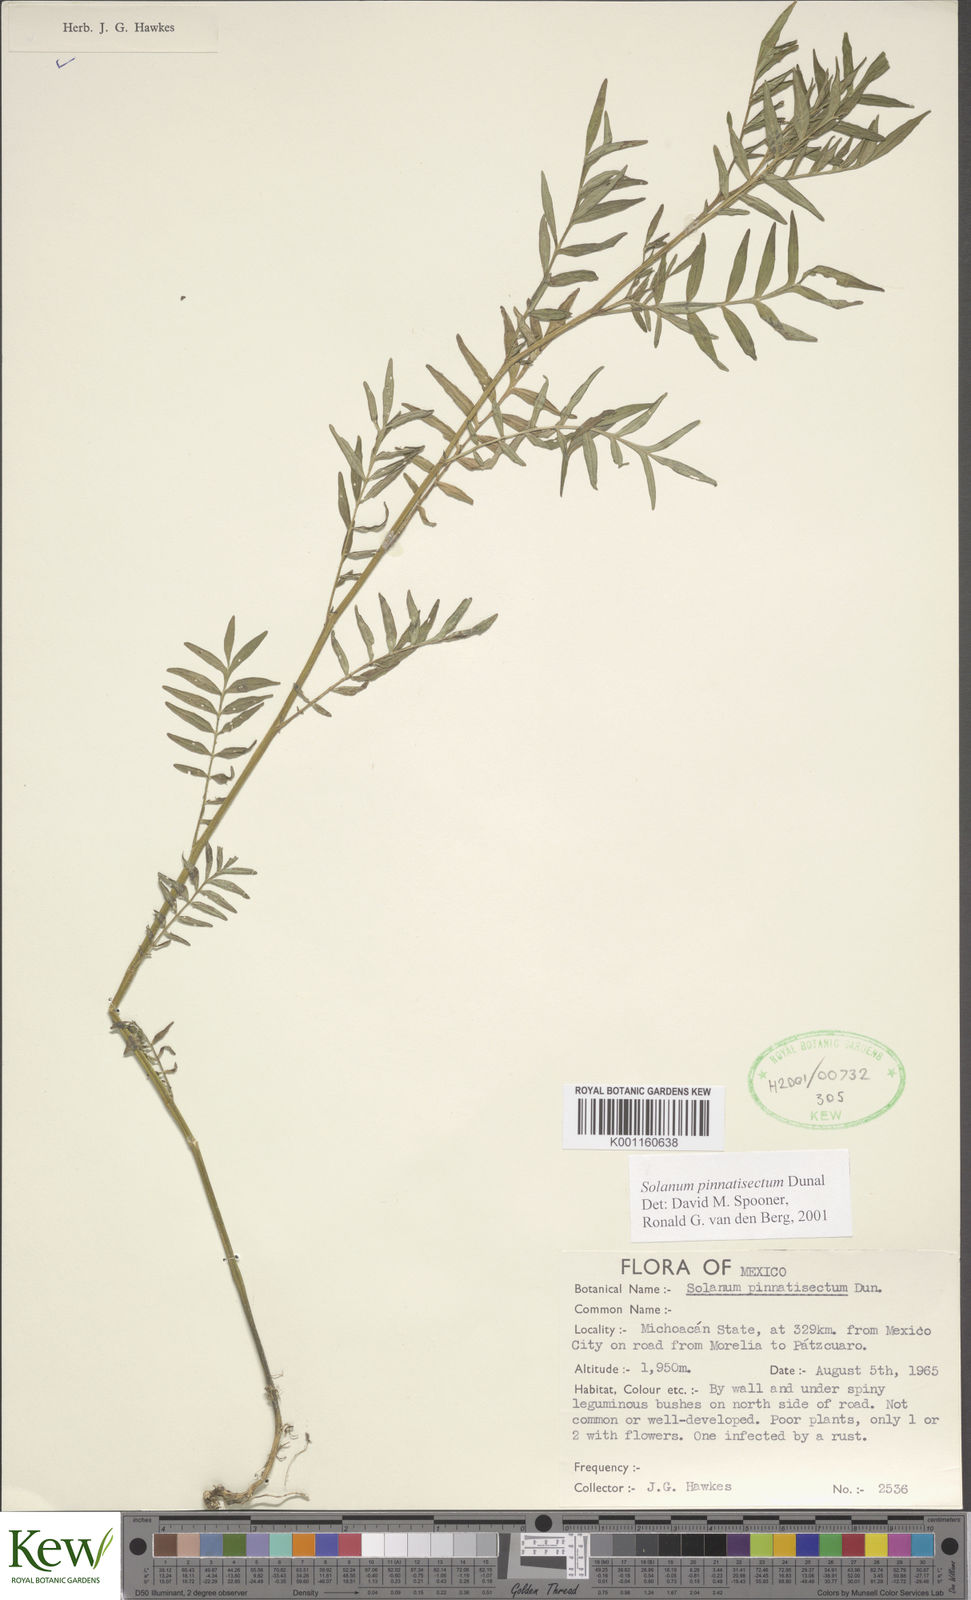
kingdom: Plantae
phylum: Tracheophyta
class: Magnoliopsida
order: Solanales
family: Solanaceae
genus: Solanum
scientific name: Solanum pinnatisectum
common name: Tansyleaf nightshade
